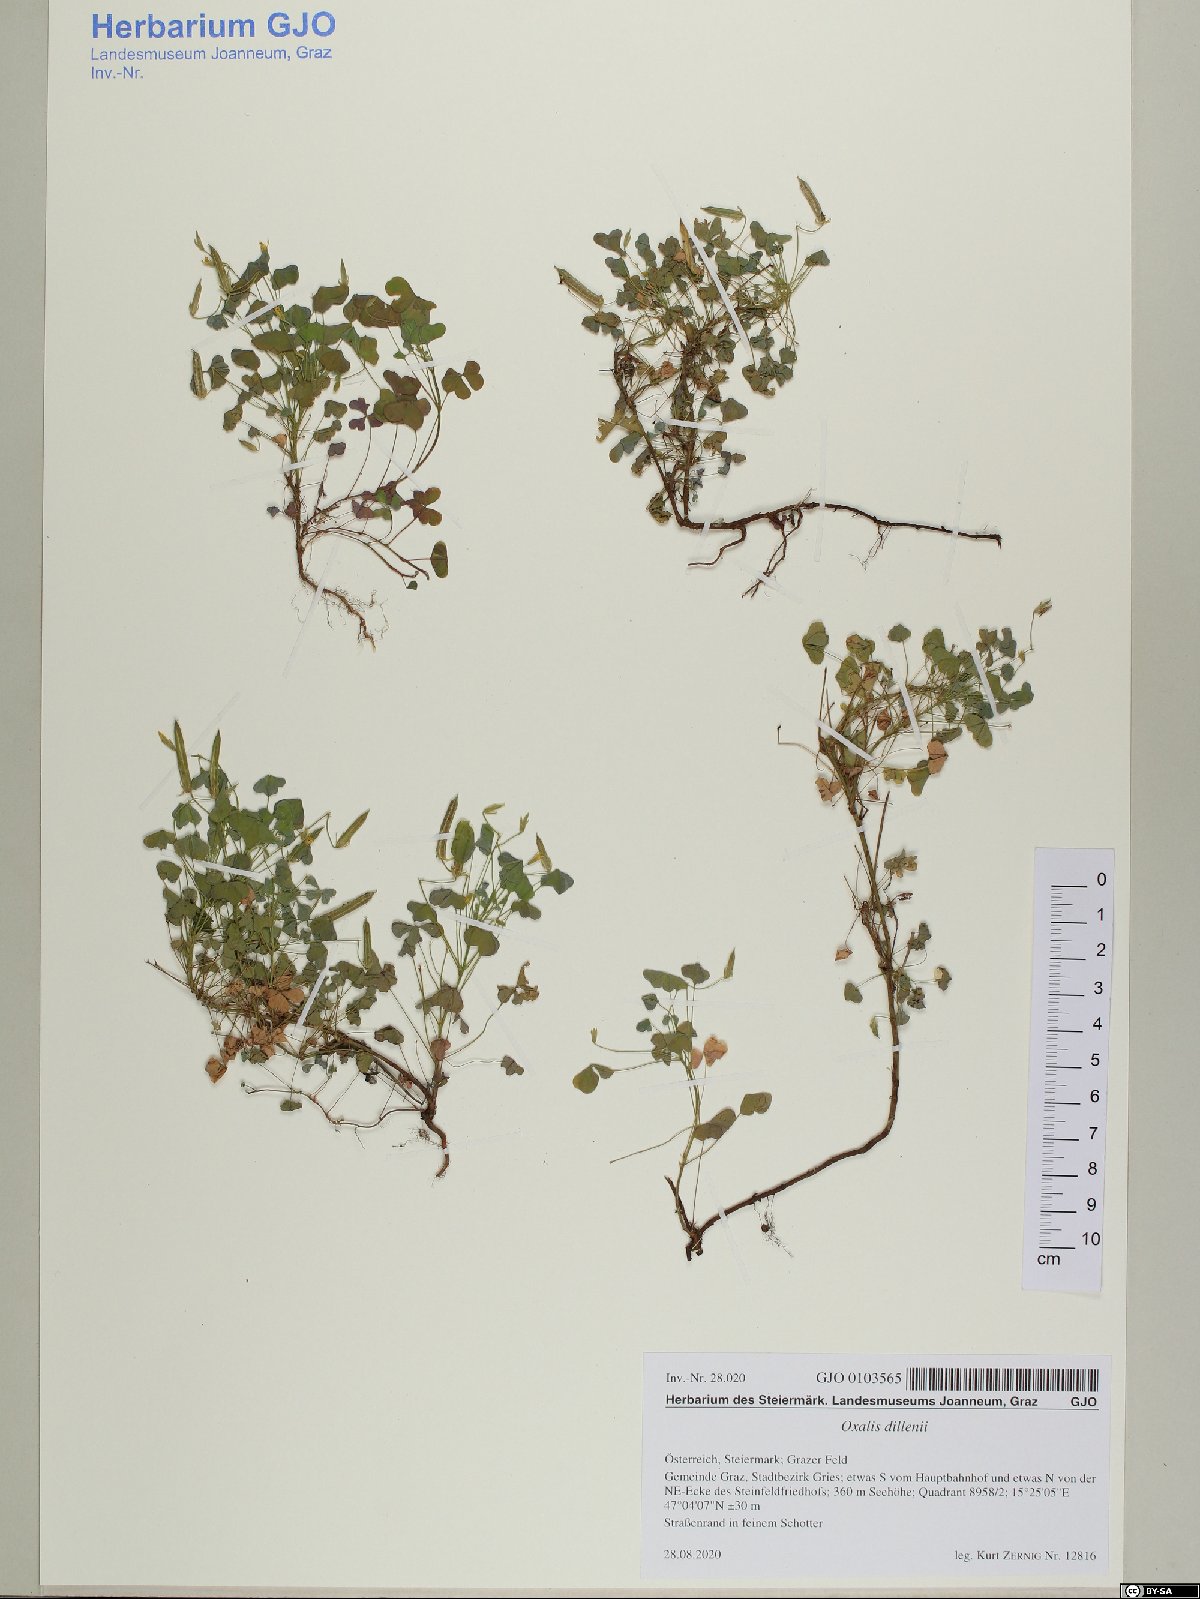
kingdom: Plantae
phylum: Tracheophyta
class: Magnoliopsida
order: Oxalidales
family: Oxalidaceae
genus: Oxalis
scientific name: Oxalis dillenii
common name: Sussex yellow-sorrel
